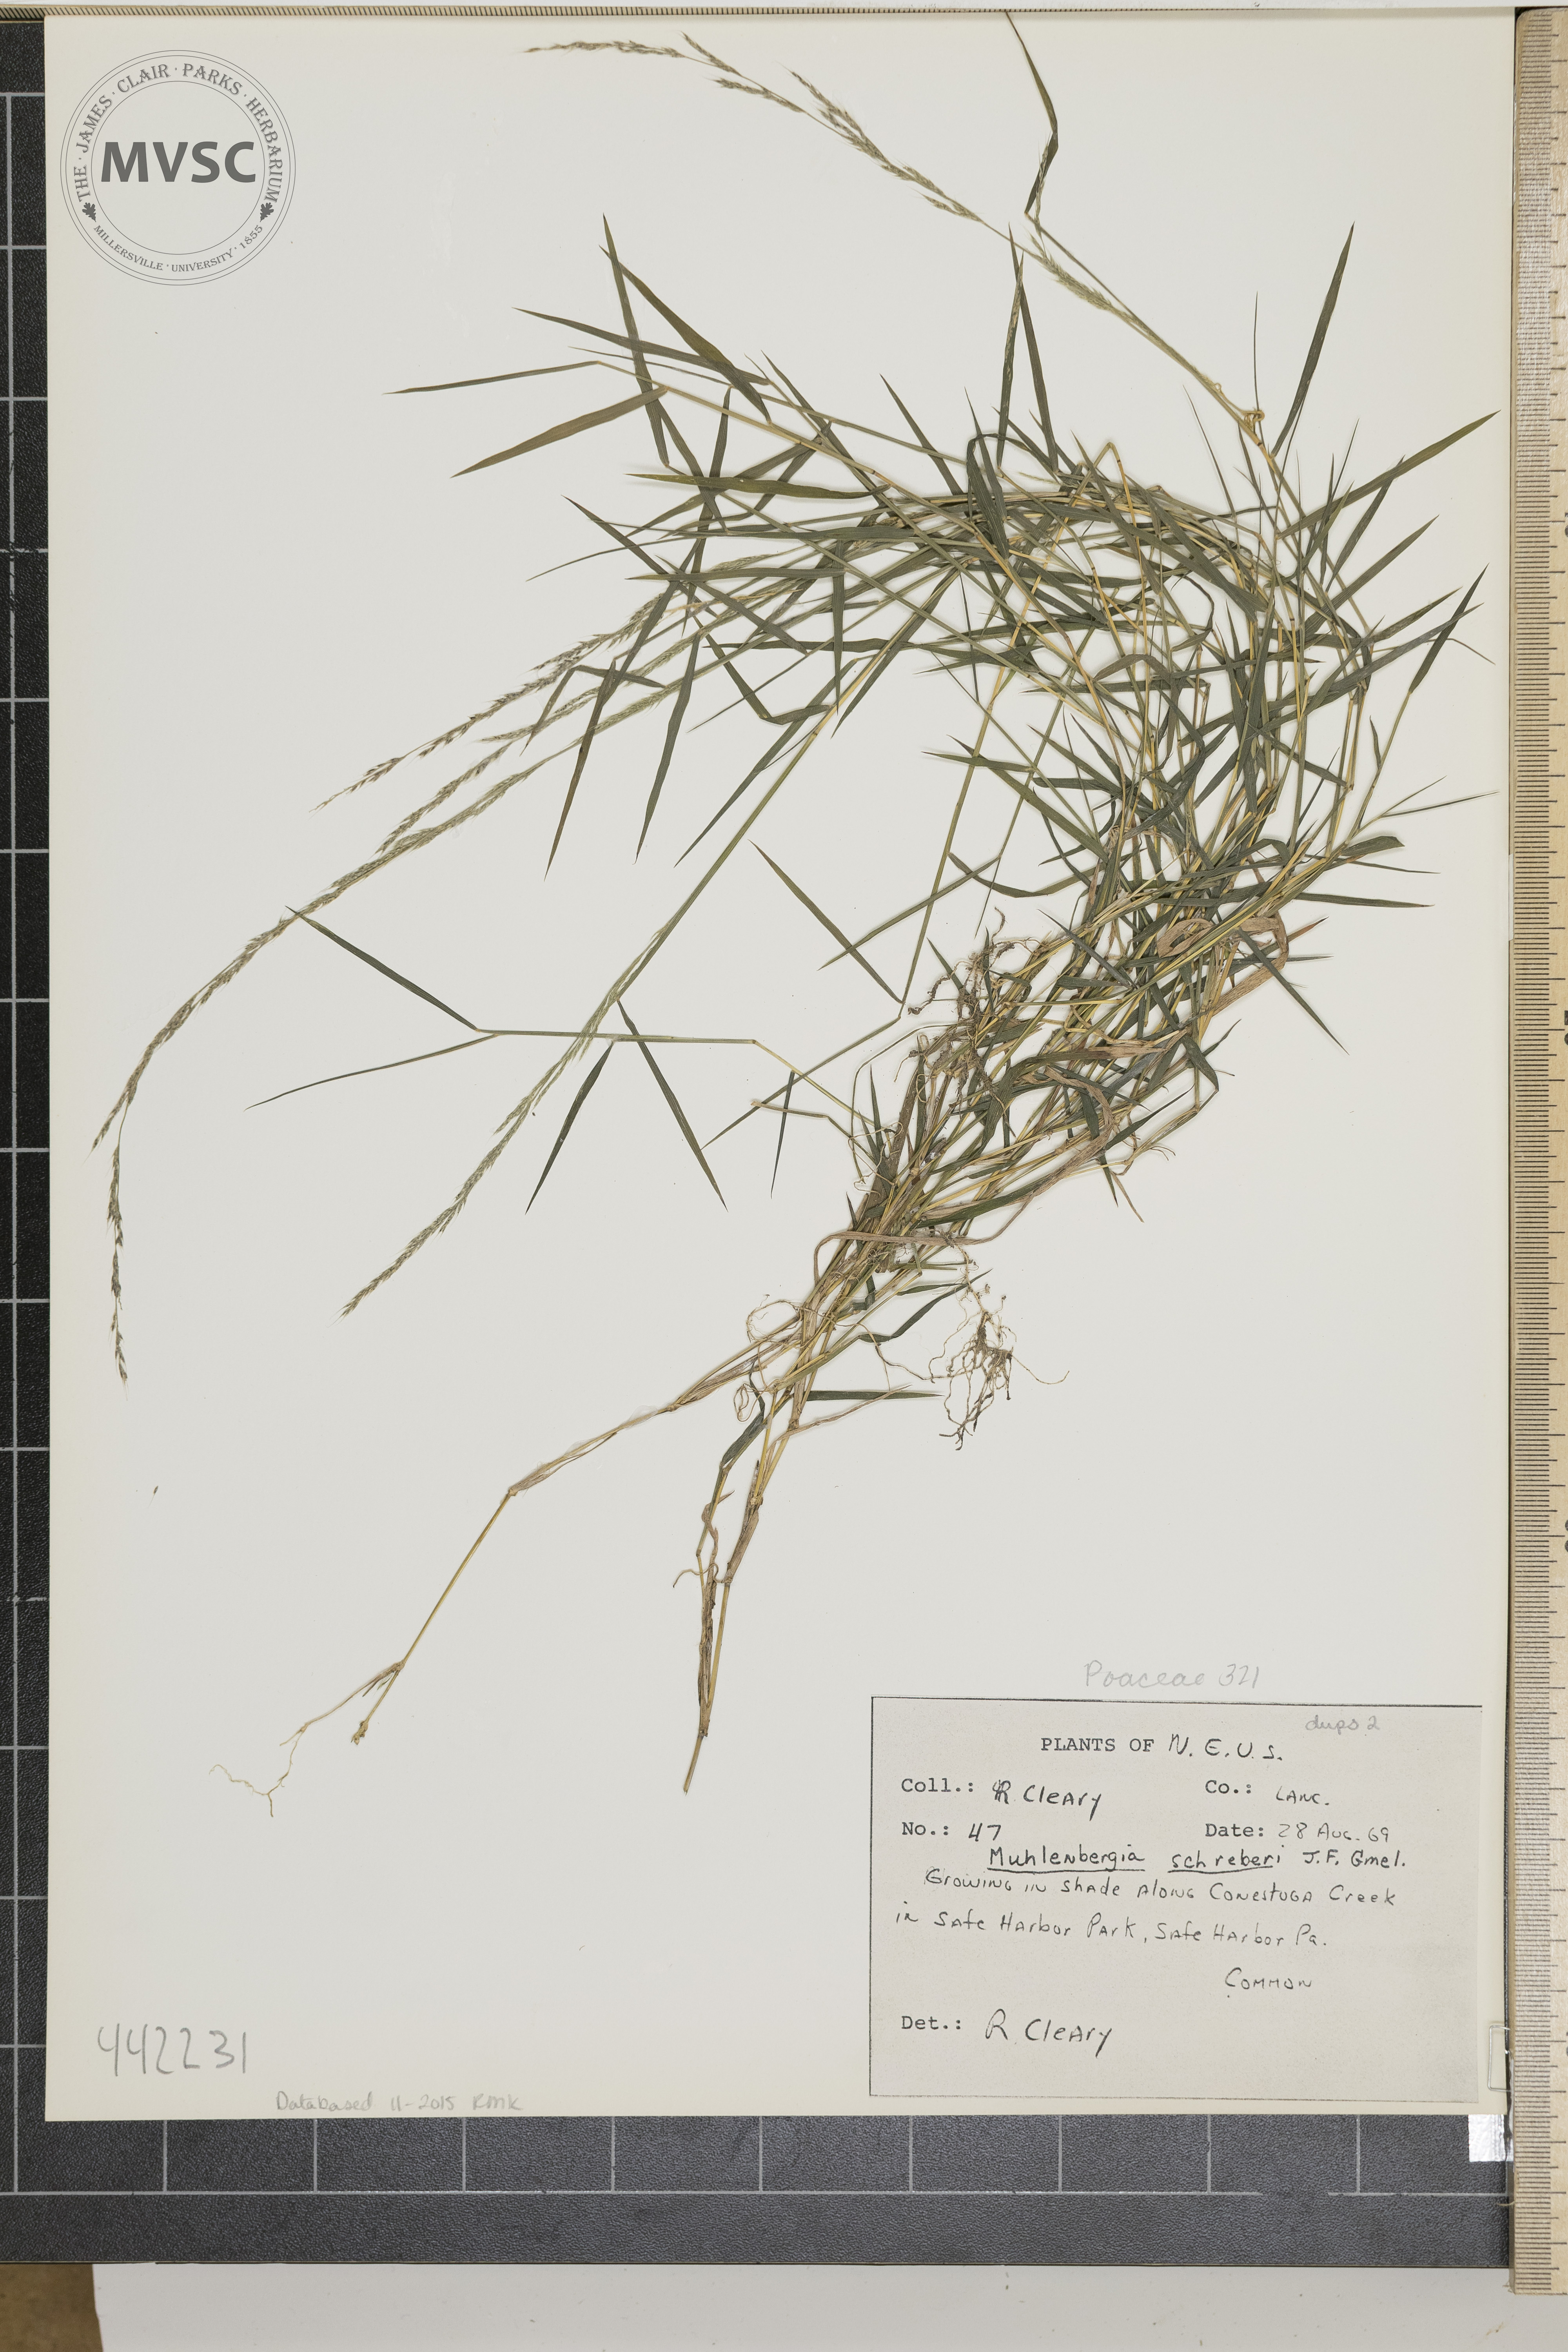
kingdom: Plantae
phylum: Tracheophyta
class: Liliopsida
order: Poales
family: Poaceae
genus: Muhlenbergia
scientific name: Muhlenbergia schreberi
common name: Nimblewill
